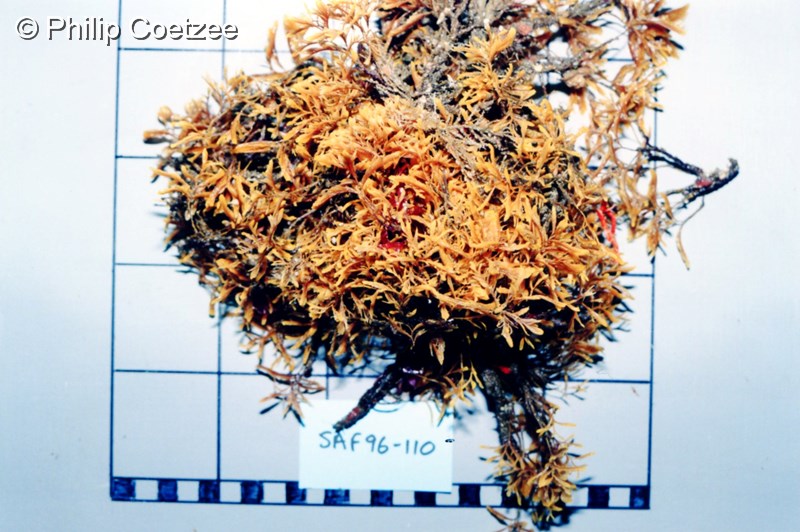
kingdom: Animalia
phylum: Cnidaria
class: Hydrozoa
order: Leptothecata
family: Aglaopheniidae
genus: Lytocarpia
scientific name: Lytocarpia formosa
